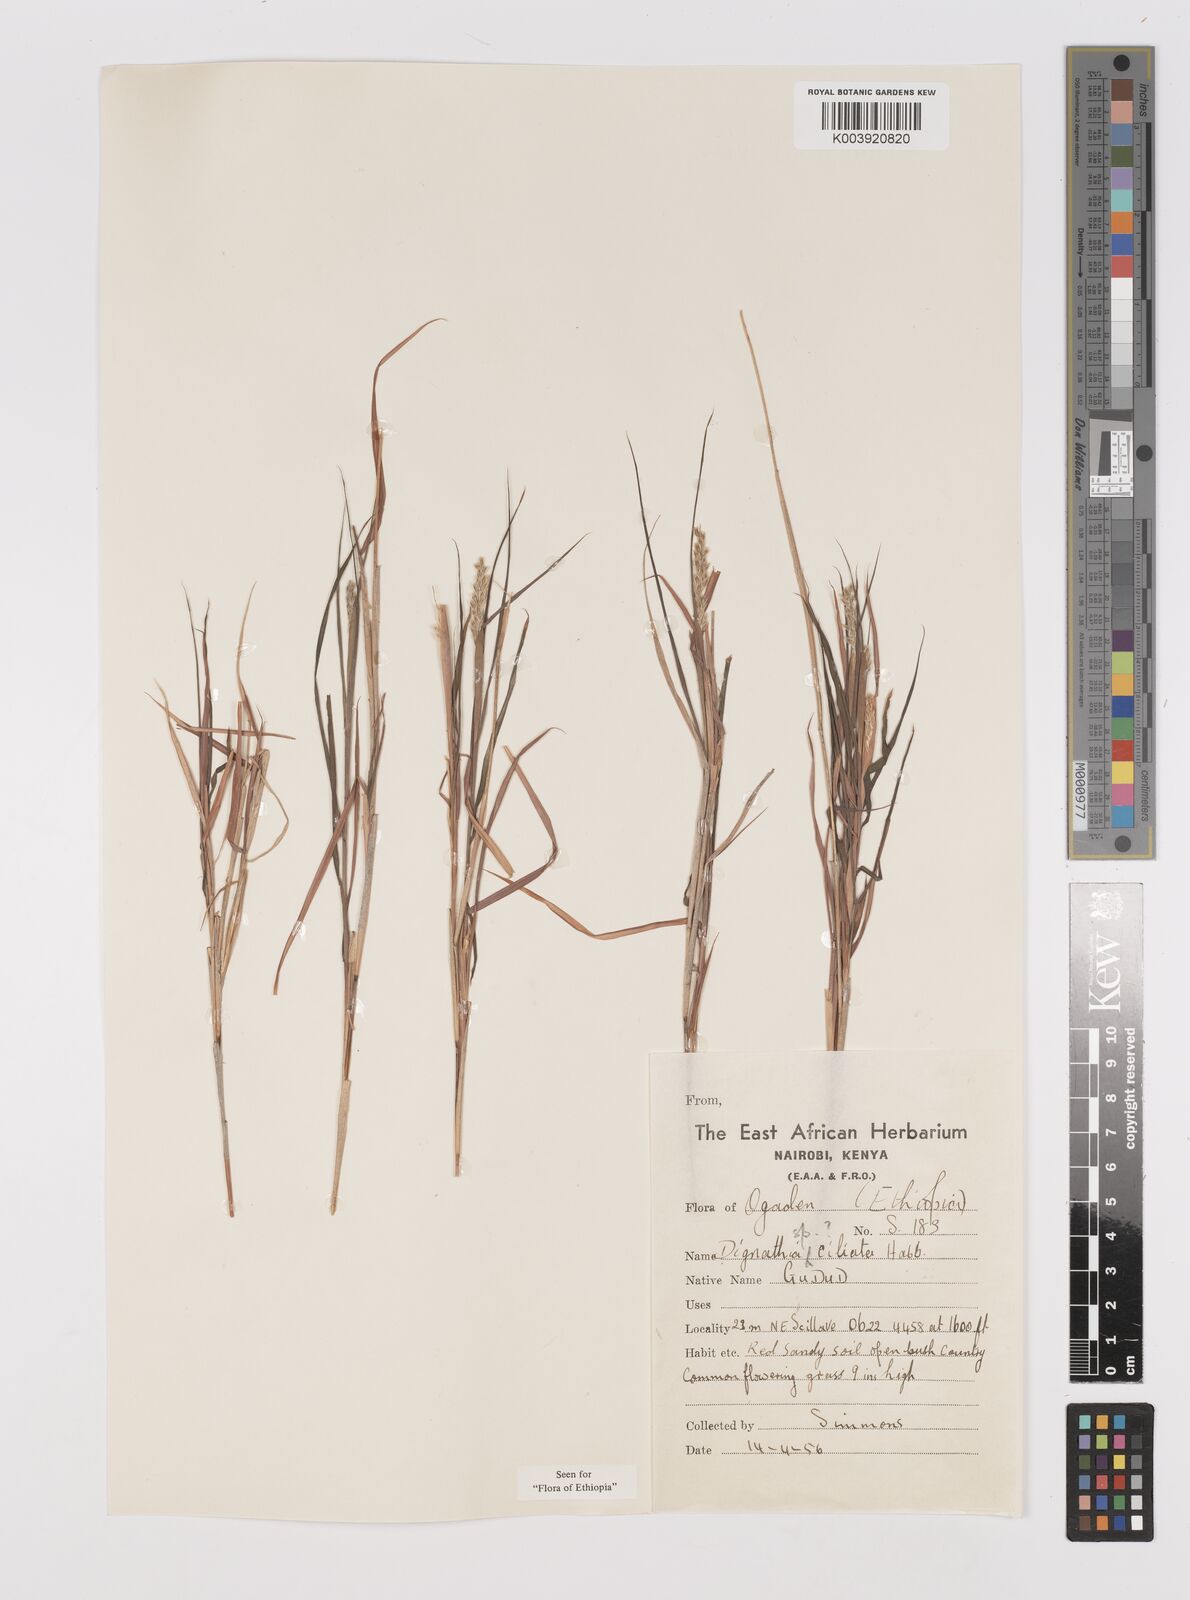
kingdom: Plantae
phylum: Tracheophyta
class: Liliopsida
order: Poales
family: Poaceae
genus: Dignathia
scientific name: Dignathia ciliata
